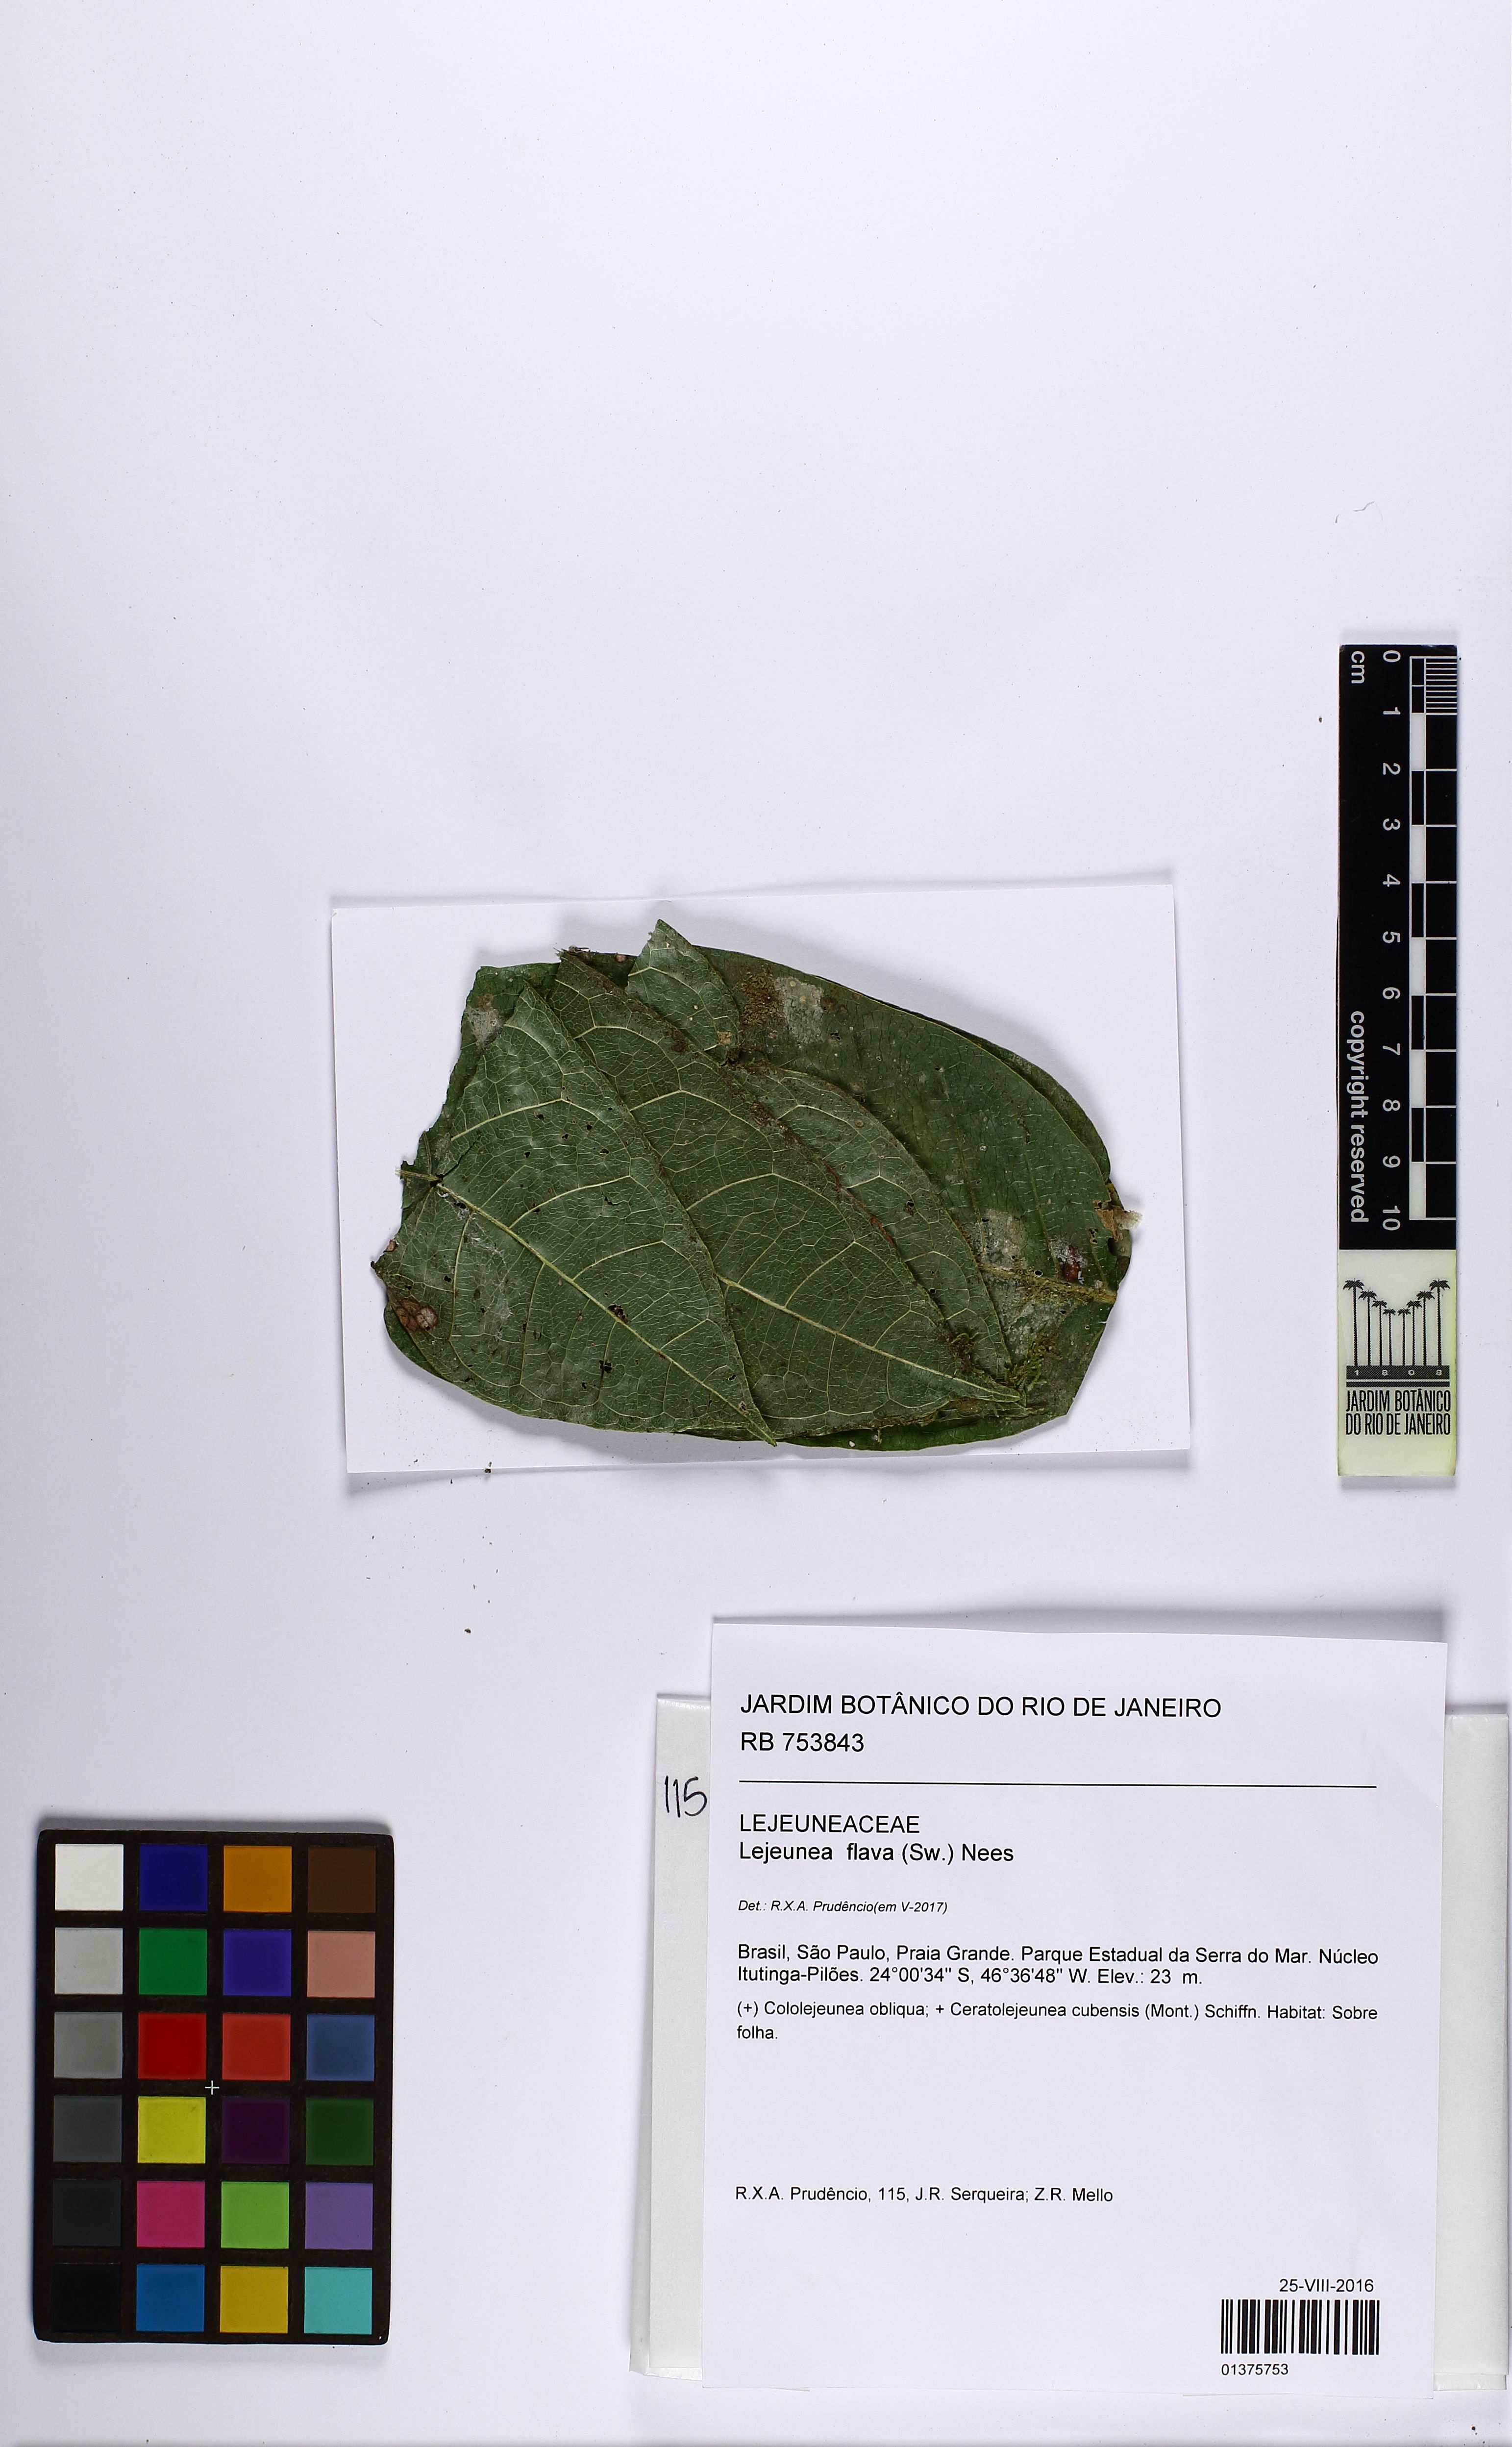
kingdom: Plantae
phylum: Marchantiophyta
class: Jungermanniopsida
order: Porellales
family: Lejeuneaceae
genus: Lejeunea
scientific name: Lejeunea flava
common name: Yellow pouncewort
